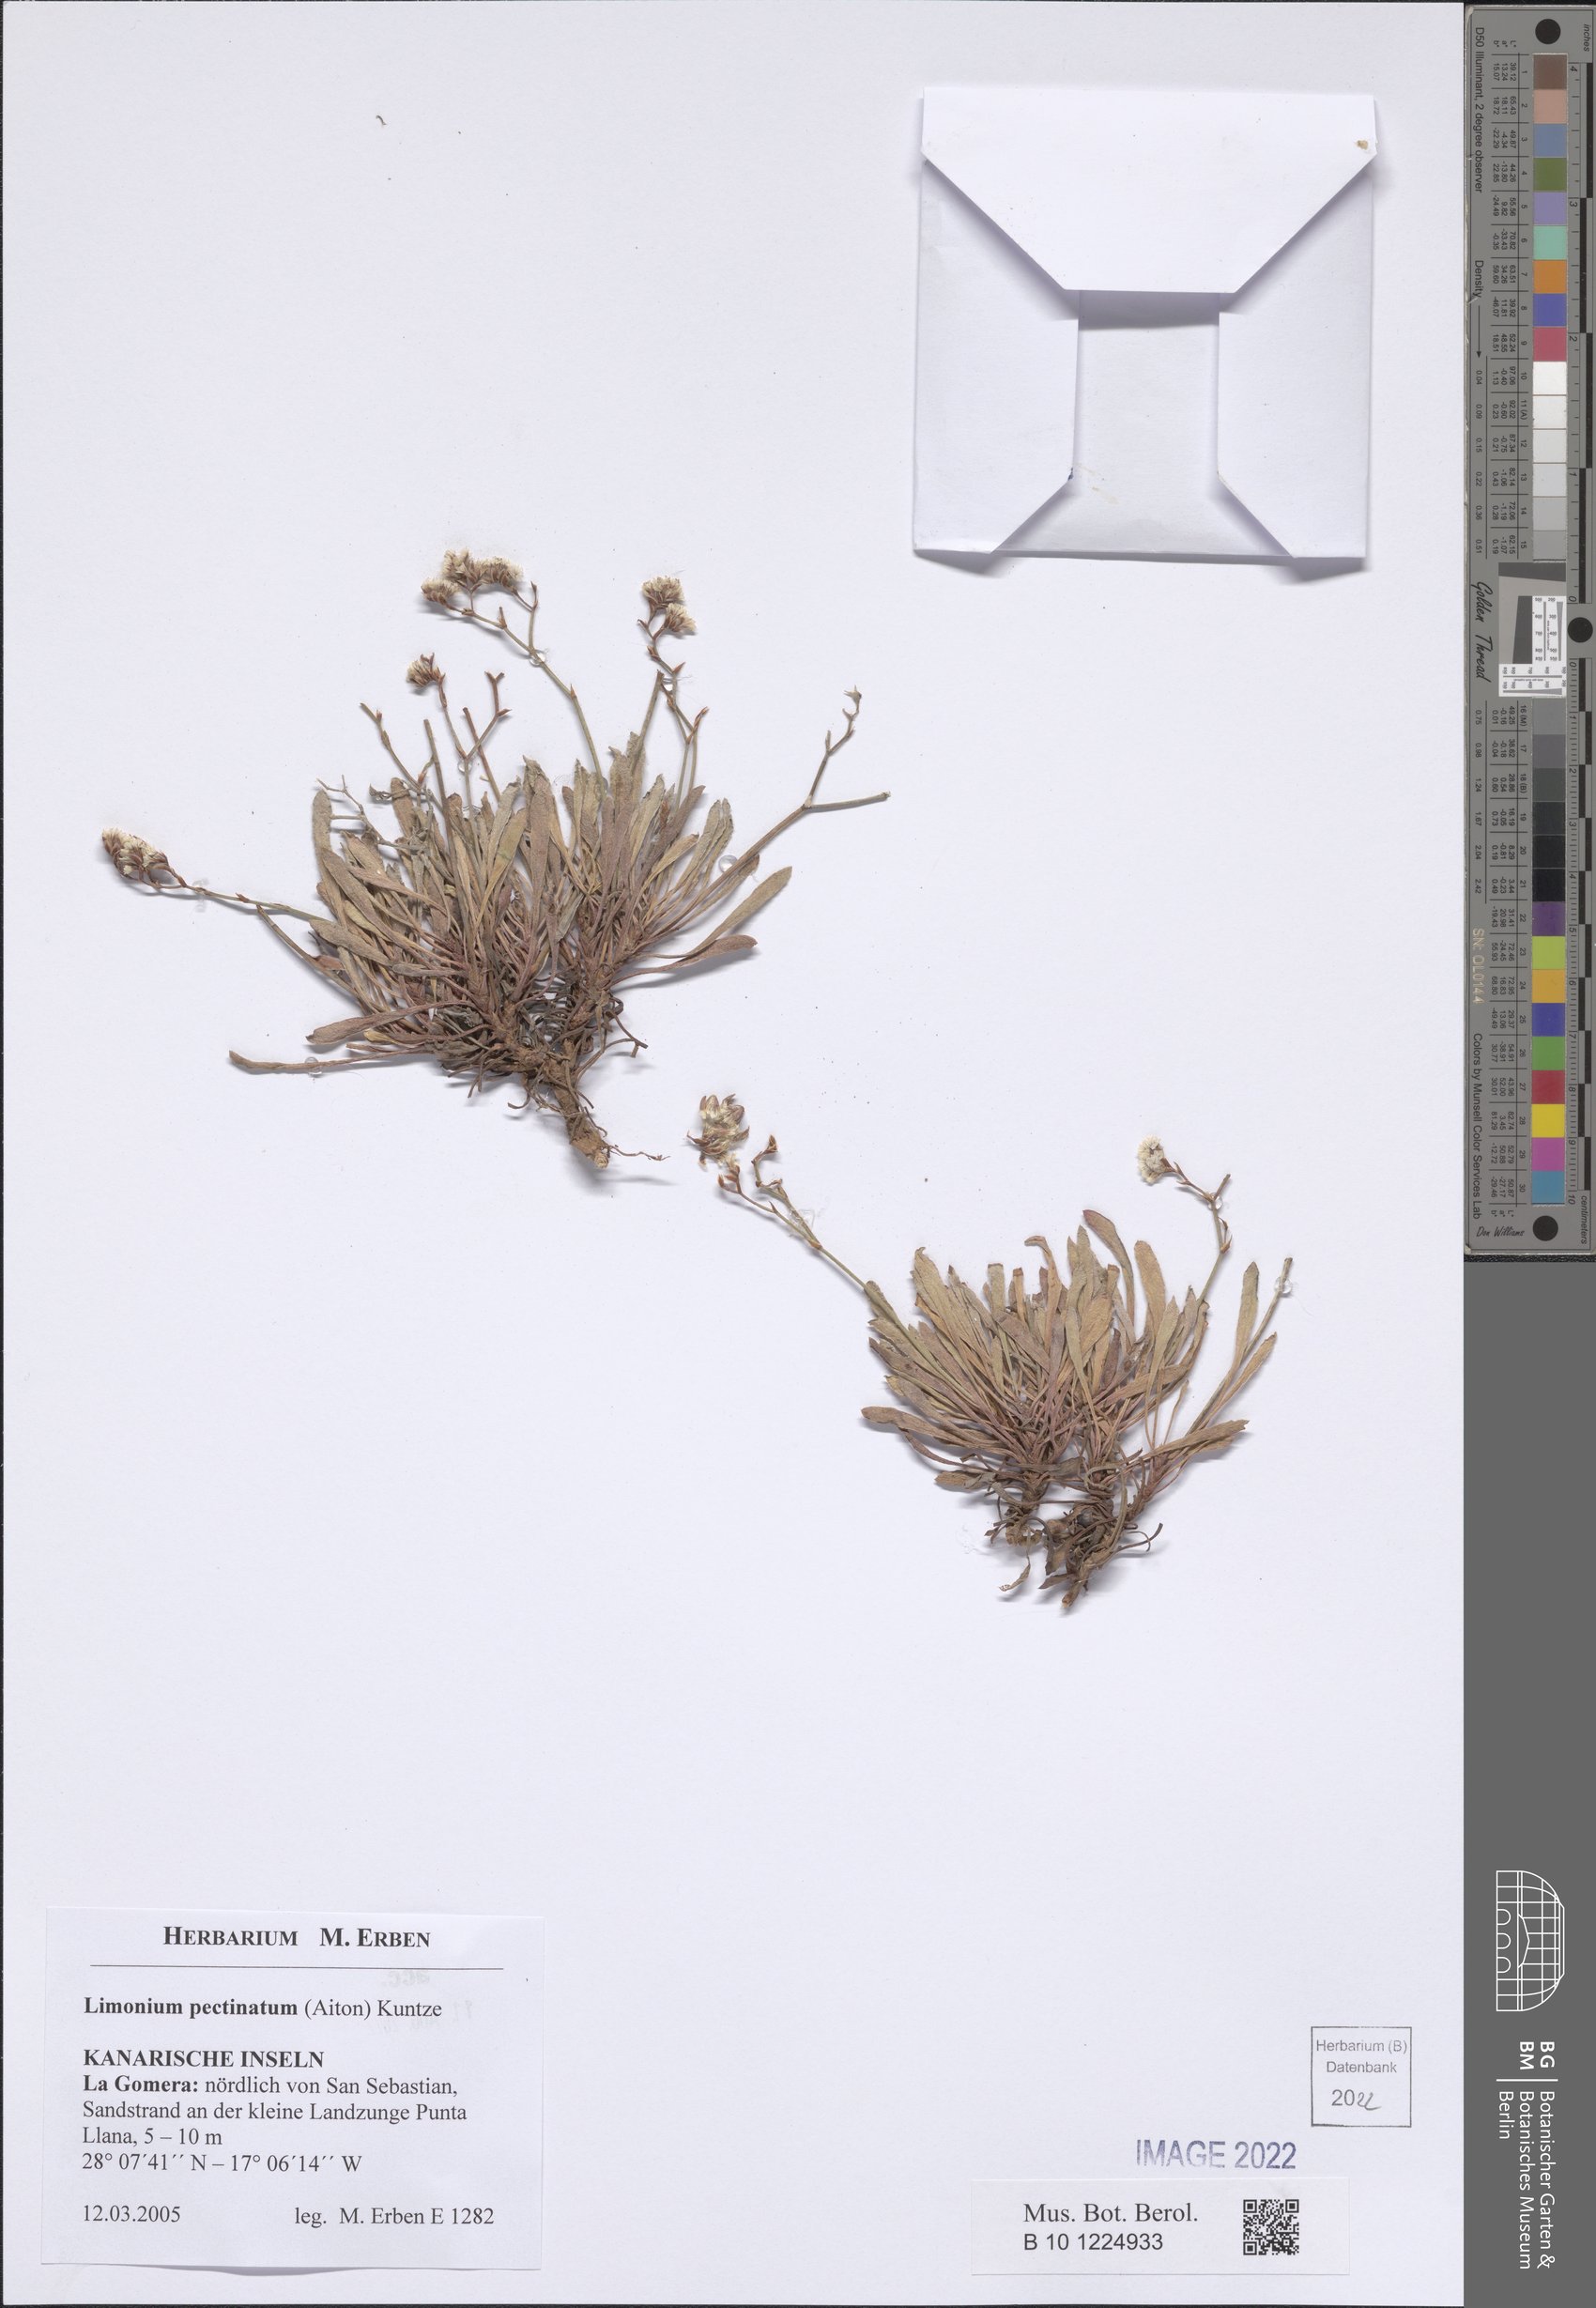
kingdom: Plantae
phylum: Tracheophyta
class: Magnoliopsida
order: Caryophyllales
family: Plumbaginaceae
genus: Limonium
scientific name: Limonium pectinatum
